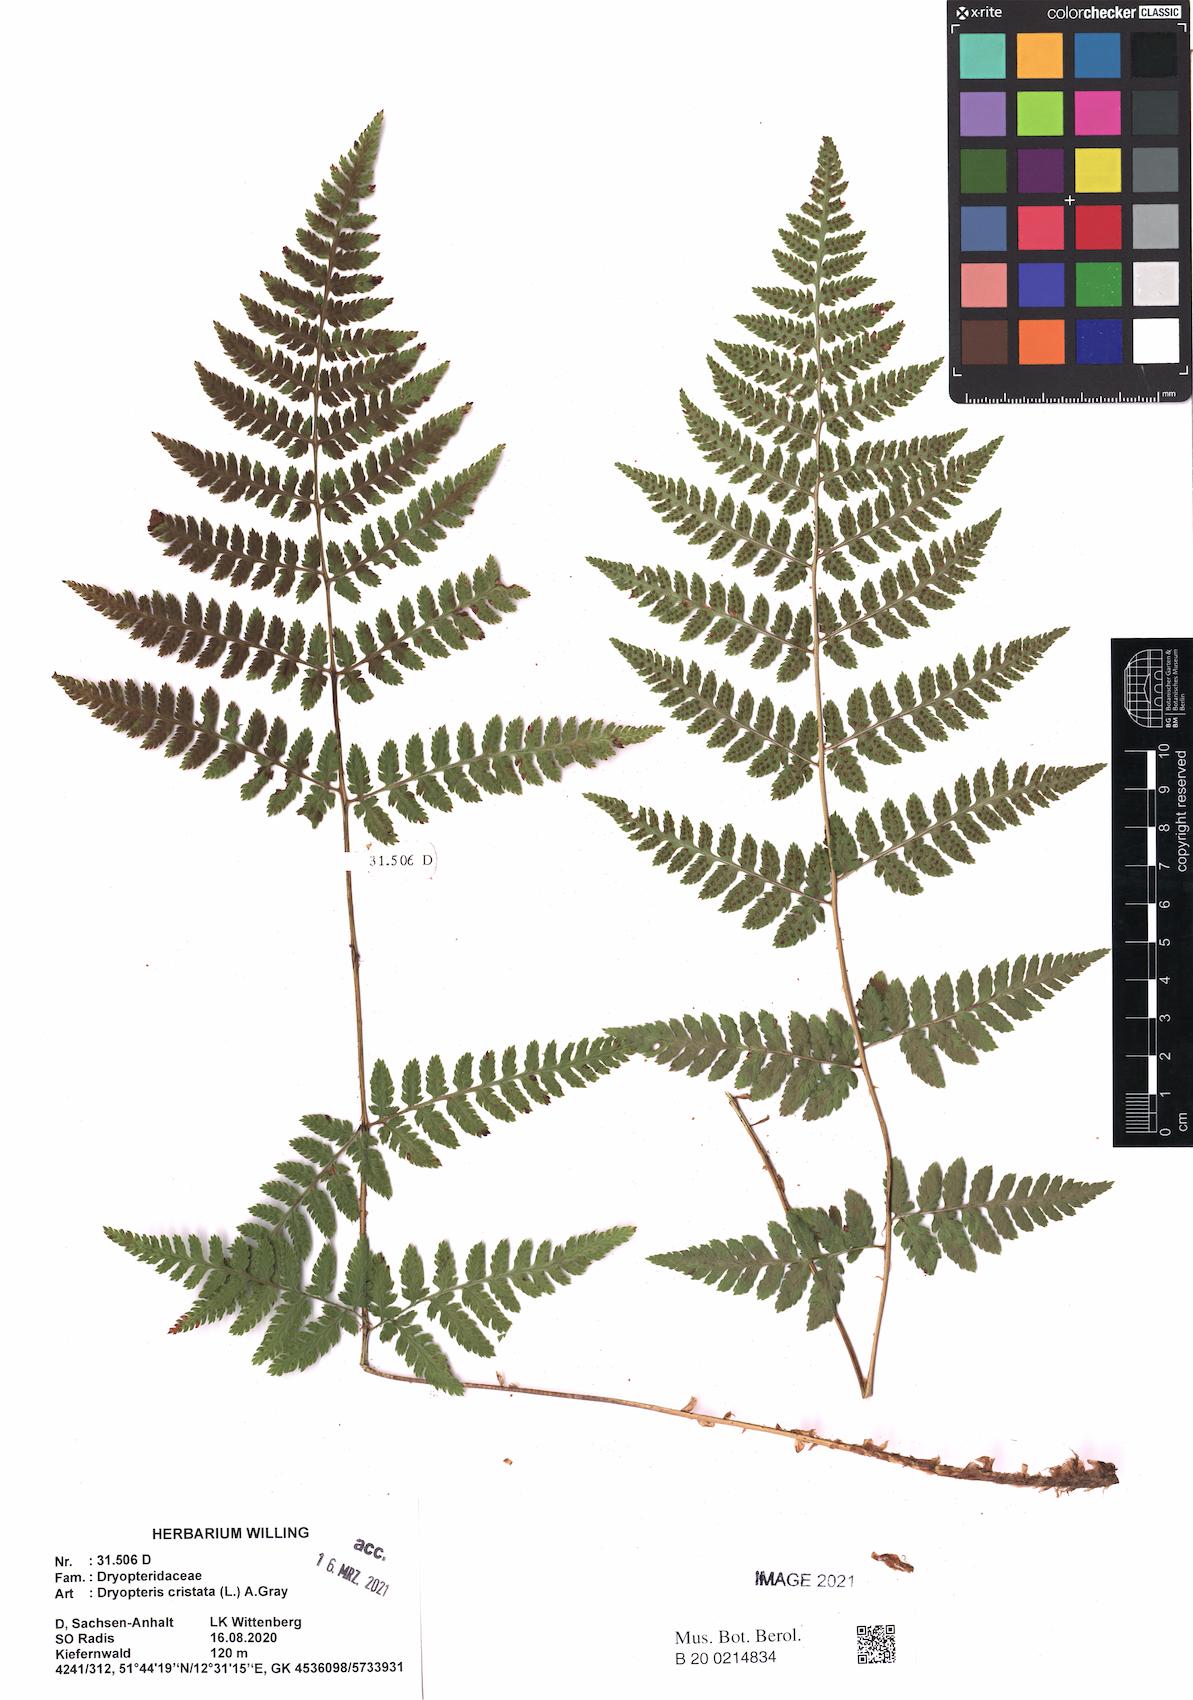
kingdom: Plantae
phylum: Tracheophyta
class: Polypodiopsida
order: Polypodiales
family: Dryopteridaceae
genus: Dryopteris
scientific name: Dryopteris carthusiana
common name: Narrow buckler-fern
